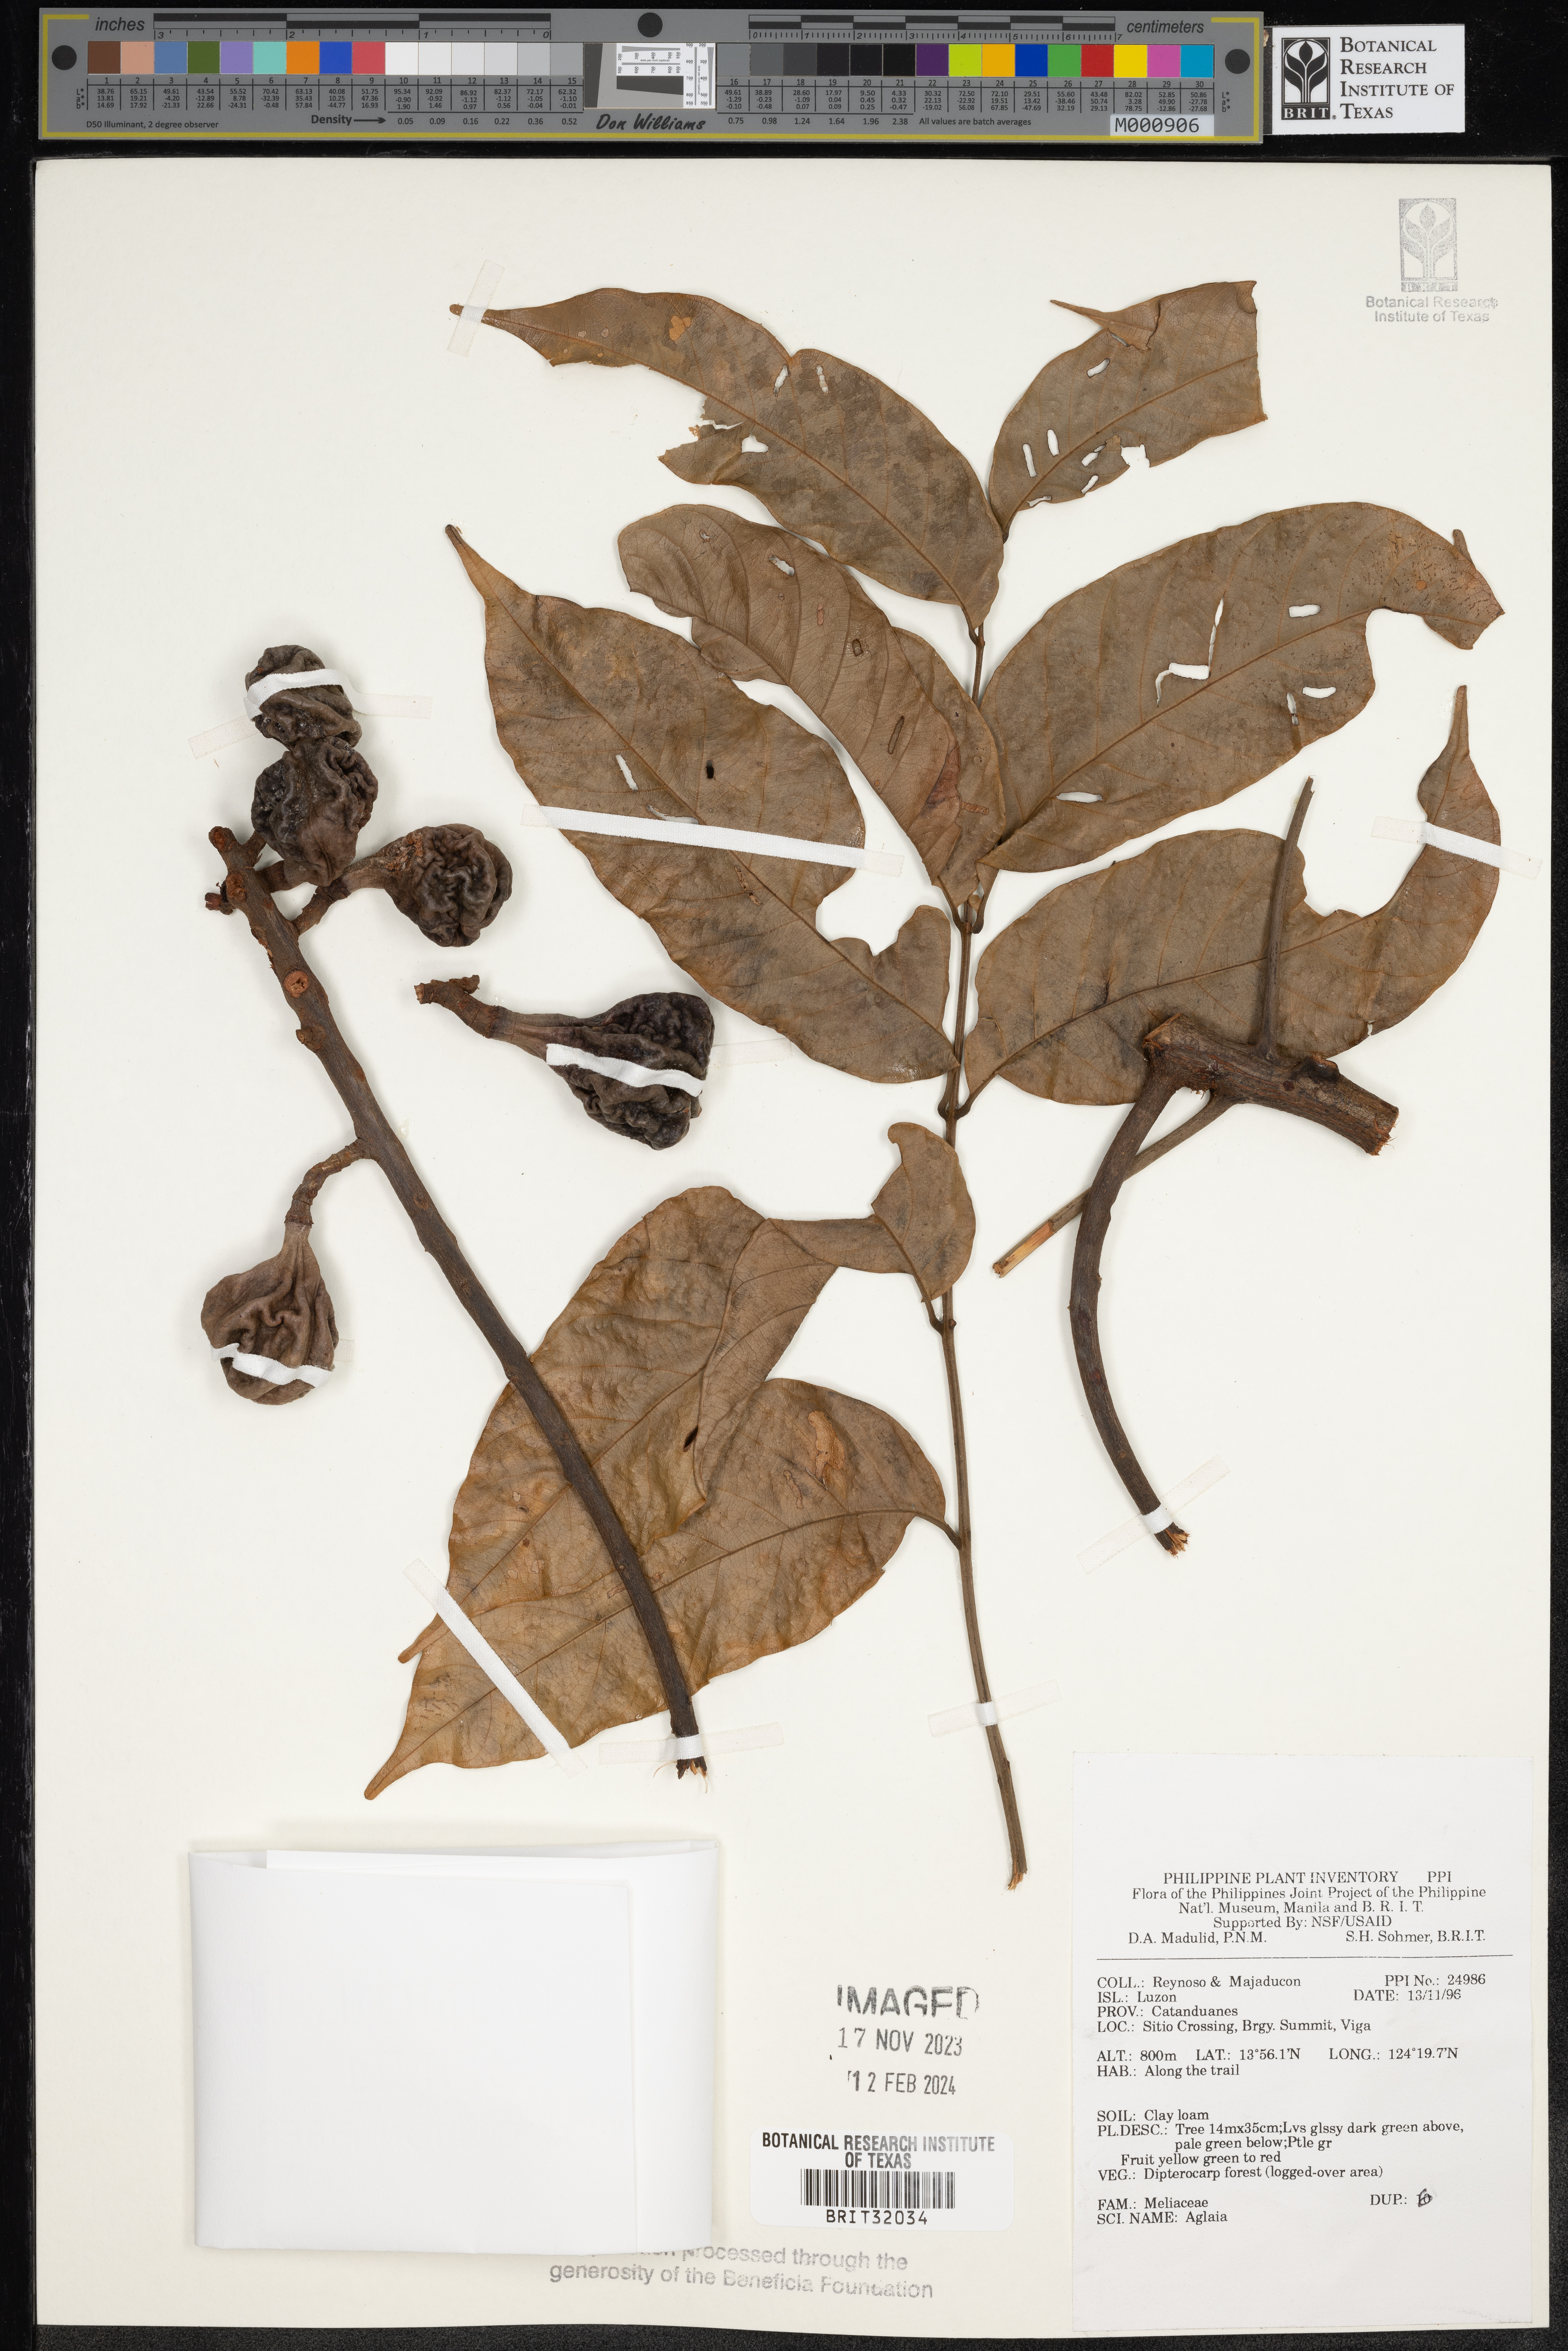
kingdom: Plantae
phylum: Tracheophyta
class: Magnoliopsida
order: Sapindales
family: Meliaceae
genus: Aglaia
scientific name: Aglaia
